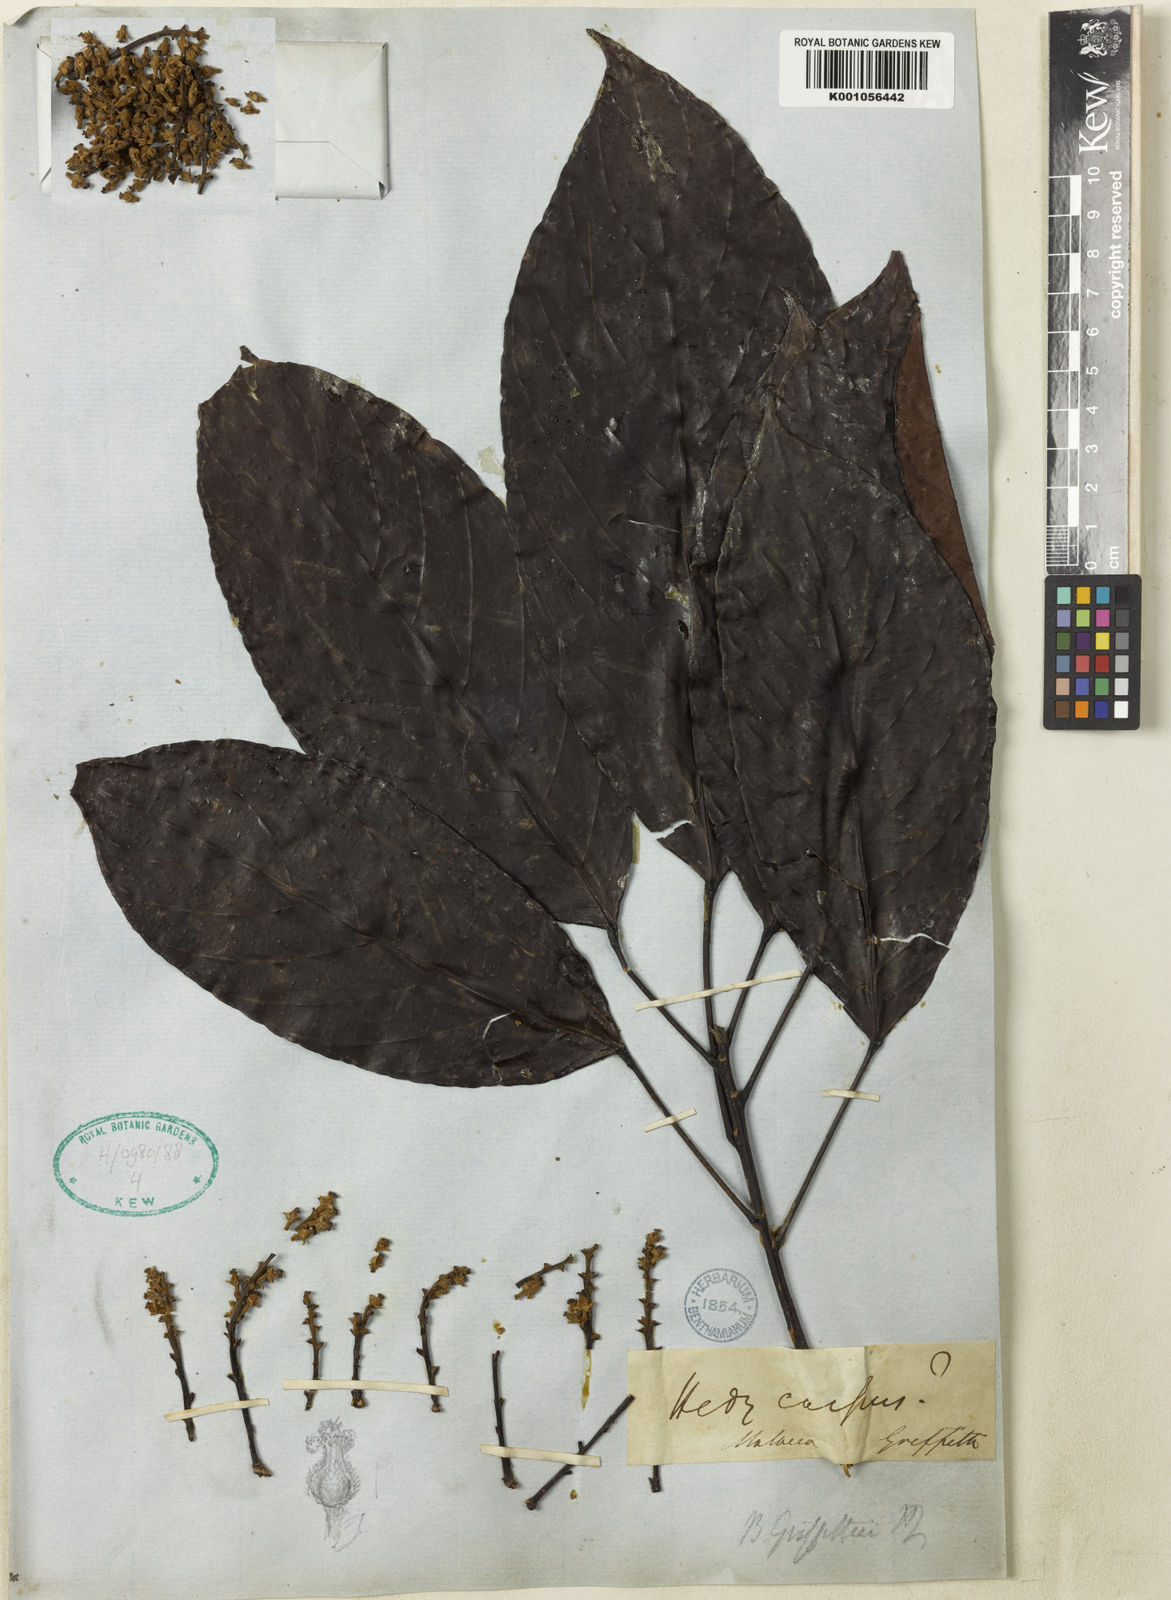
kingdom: Plantae
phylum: Tracheophyta
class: Magnoliopsida
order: Malpighiales
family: Phyllanthaceae
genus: Baccaurea
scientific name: Baccaurea macrocarpa
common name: Greater tampoi
